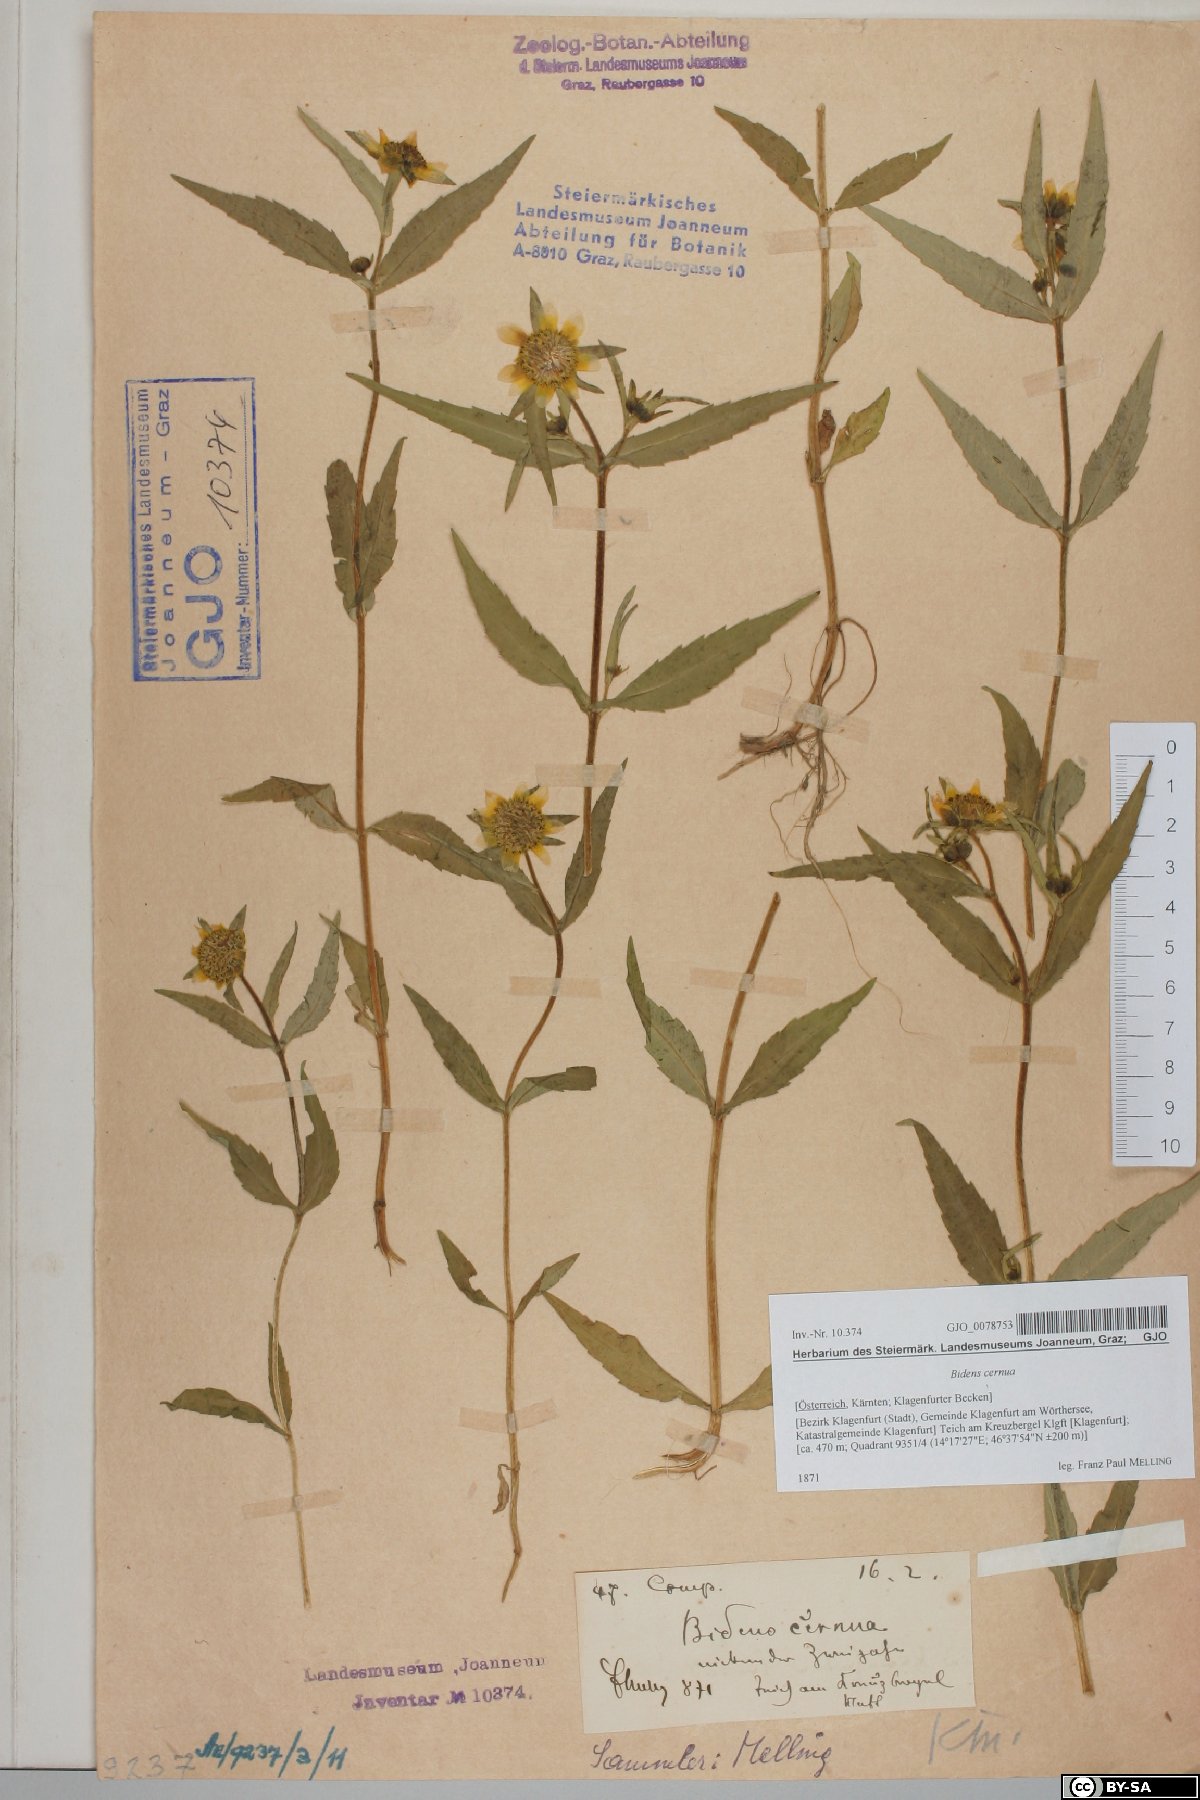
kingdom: Plantae
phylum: Tracheophyta
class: Magnoliopsida
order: Asterales
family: Asteraceae
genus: Bidens
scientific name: Bidens cernua
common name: Nodding bur-marigold
